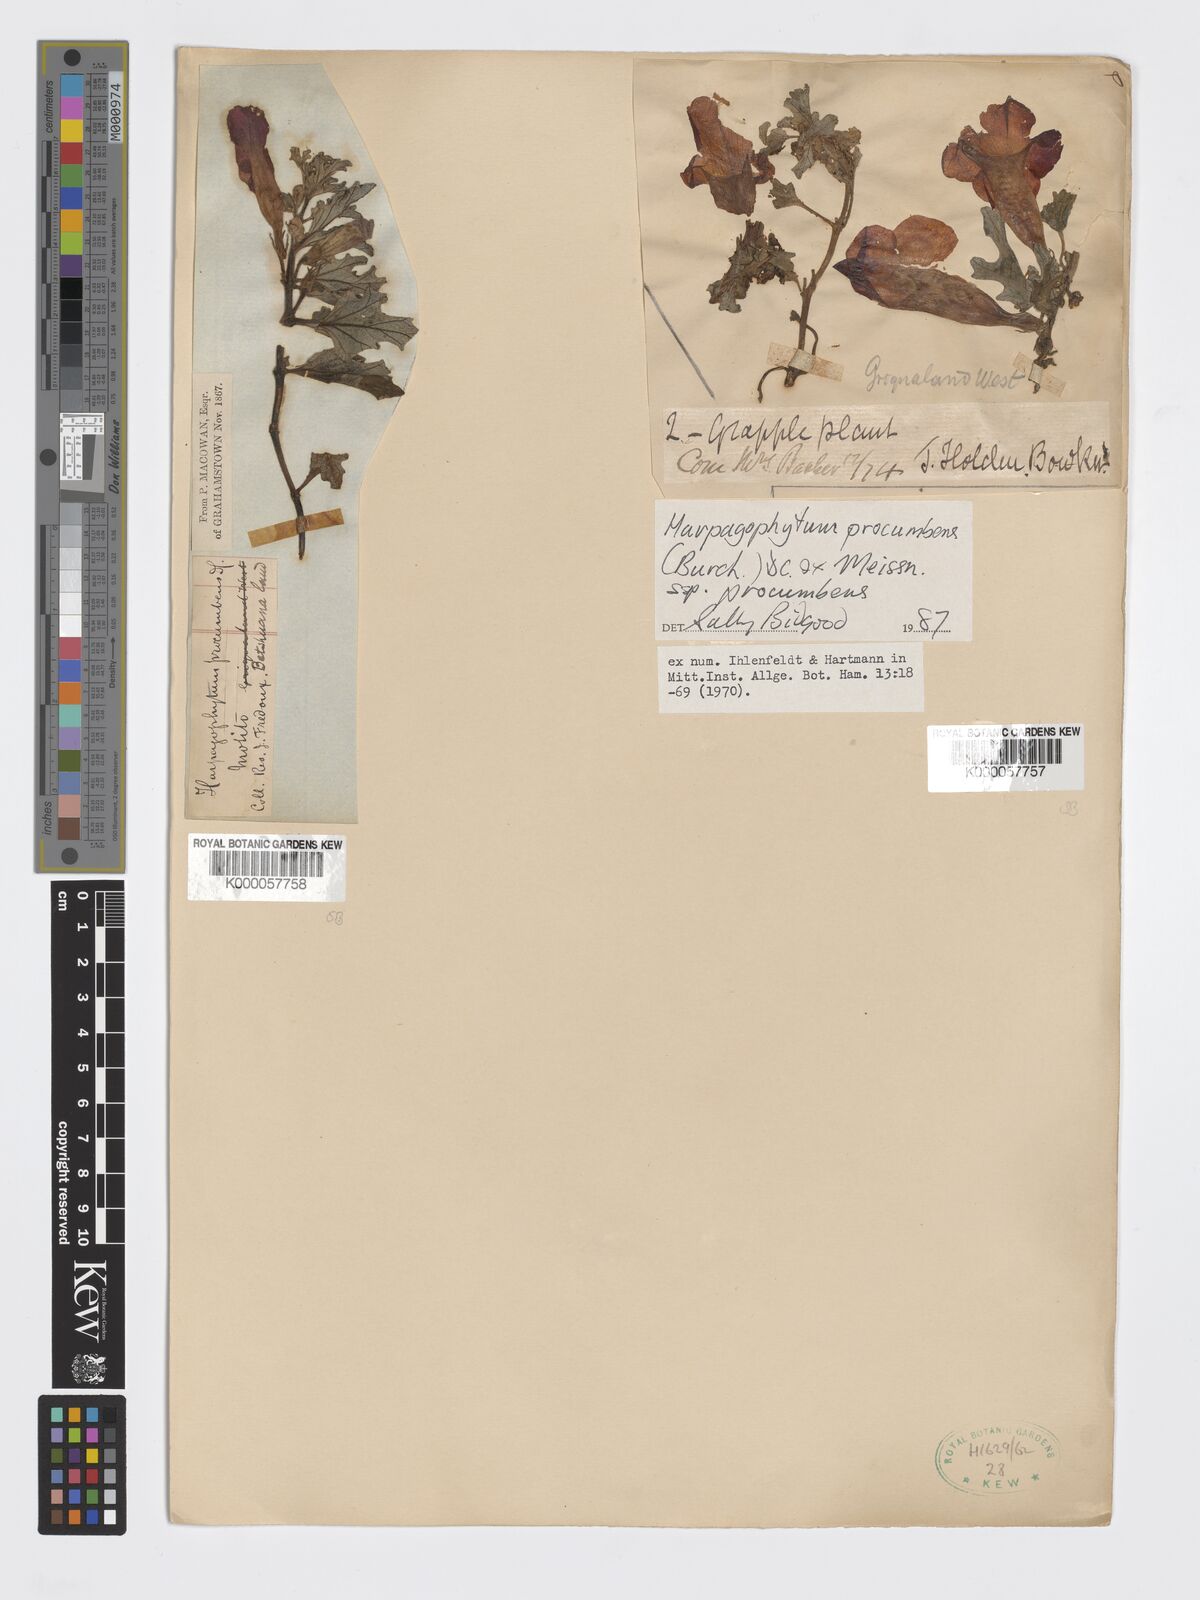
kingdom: Plantae
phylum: Tracheophyta
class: Magnoliopsida
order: Lamiales
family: Pedaliaceae
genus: Harpagophytum
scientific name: Harpagophytum procumbens
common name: Grappleplant
